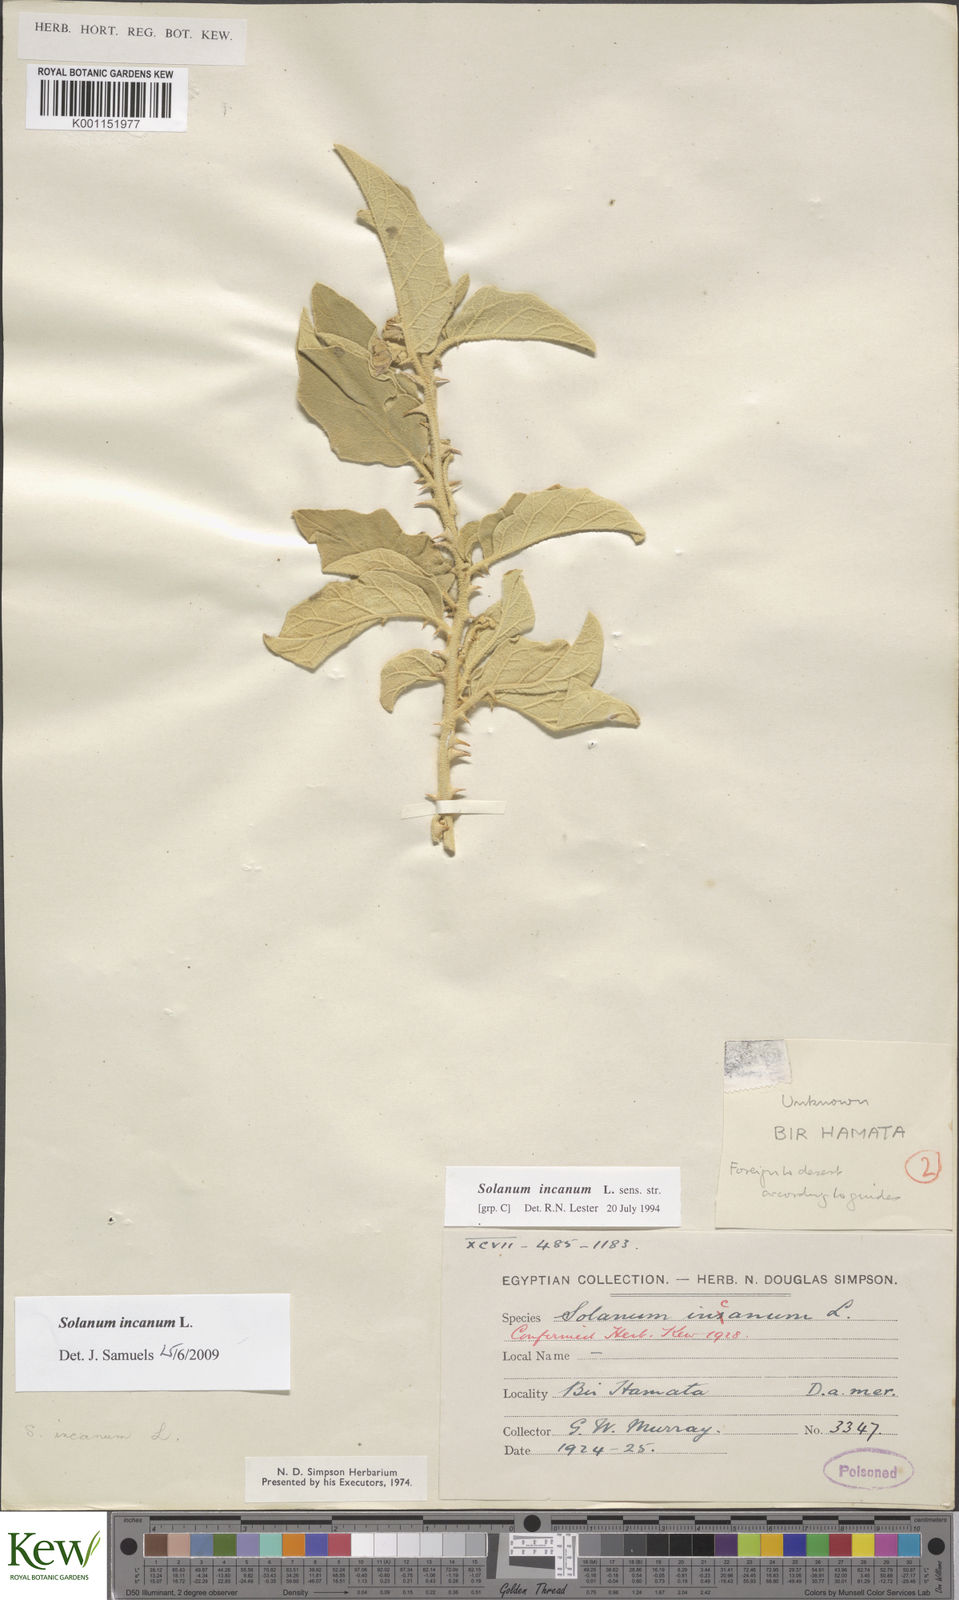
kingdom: Plantae
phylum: Tracheophyta
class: Magnoliopsida
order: Solanales
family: Solanaceae
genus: Solanum
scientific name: Solanum incanum
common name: Bitter apple
